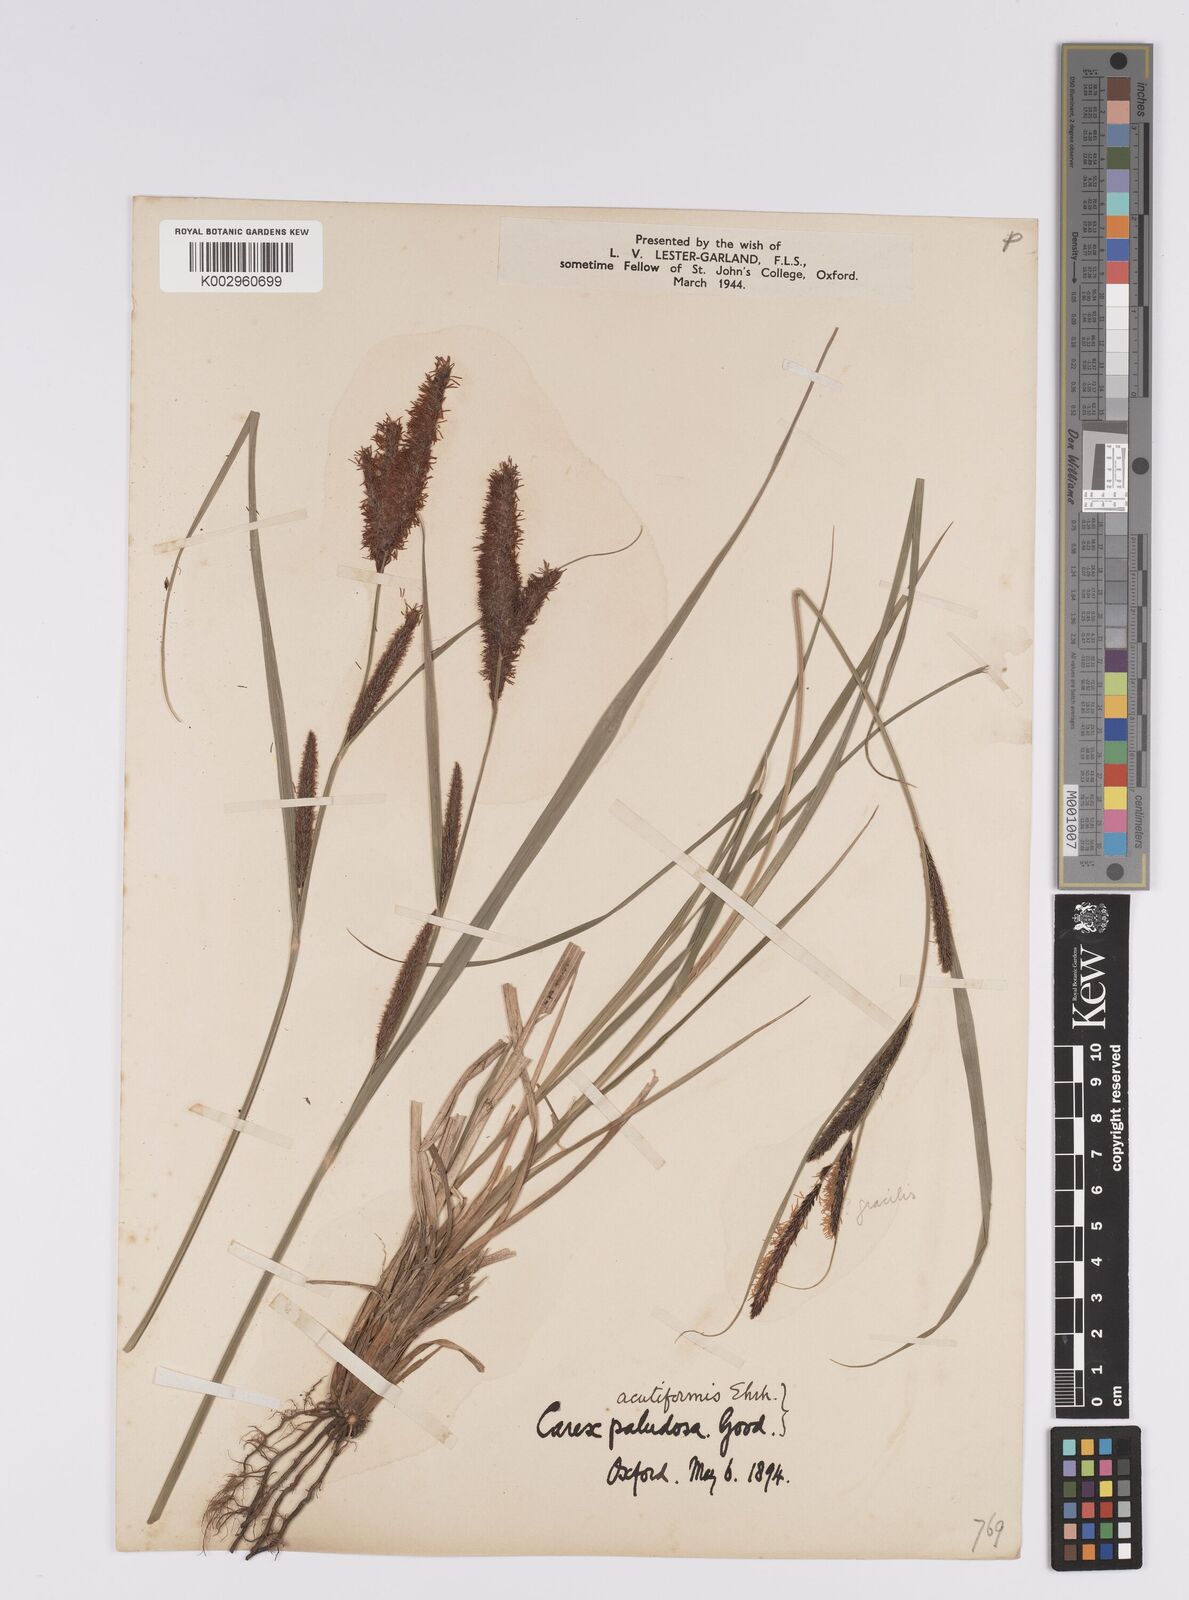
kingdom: Plantae
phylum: Tracheophyta
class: Liliopsida
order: Poales
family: Cyperaceae
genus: Carex
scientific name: Carex acutiformis
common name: Lesser pond-sedge
